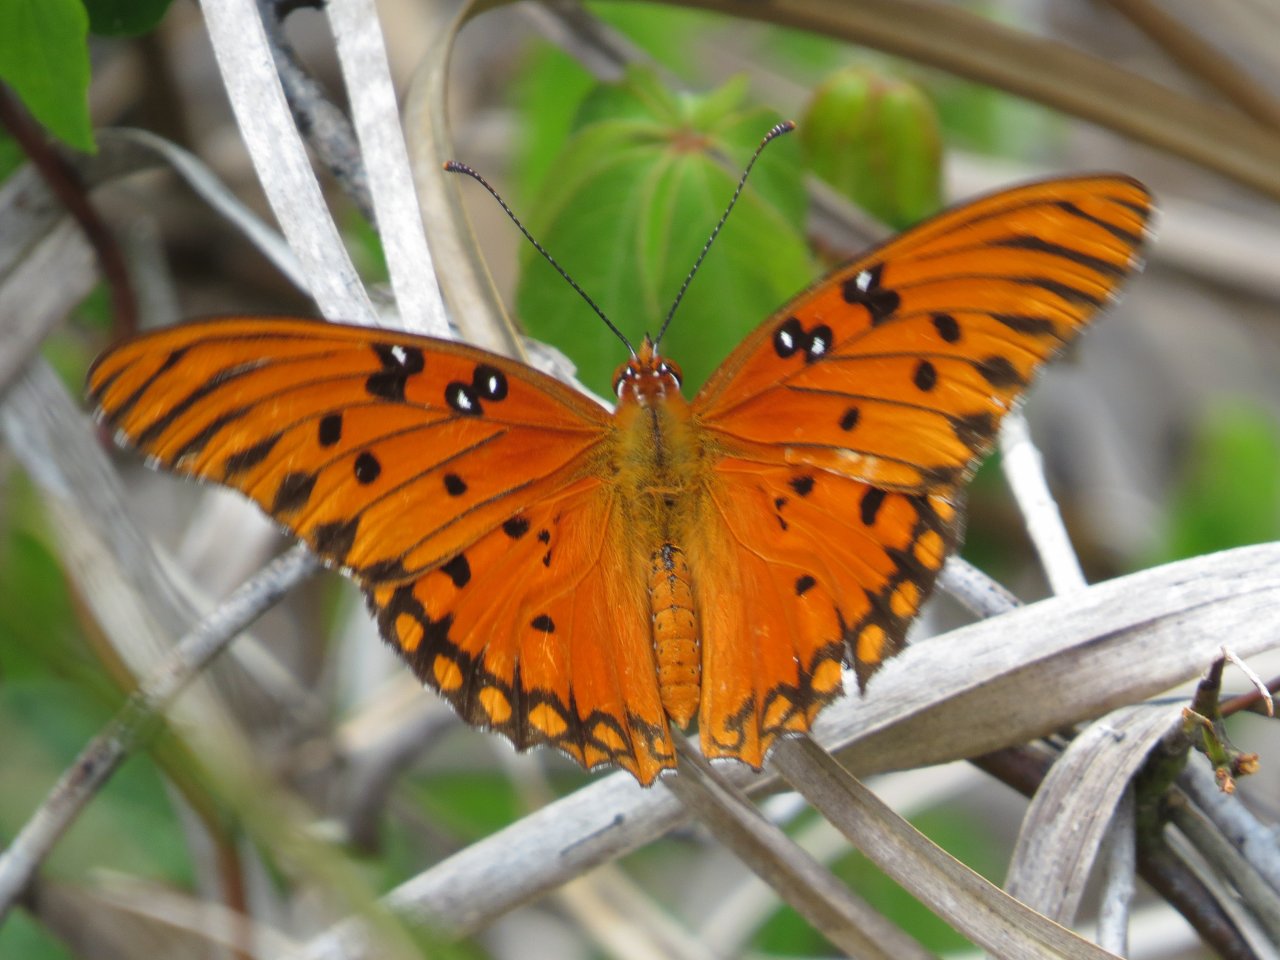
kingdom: Animalia
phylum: Arthropoda
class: Insecta
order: Lepidoptera
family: Nymphalidae
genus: Dione
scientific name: Dione vanillae
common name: Gulf Fritillary
